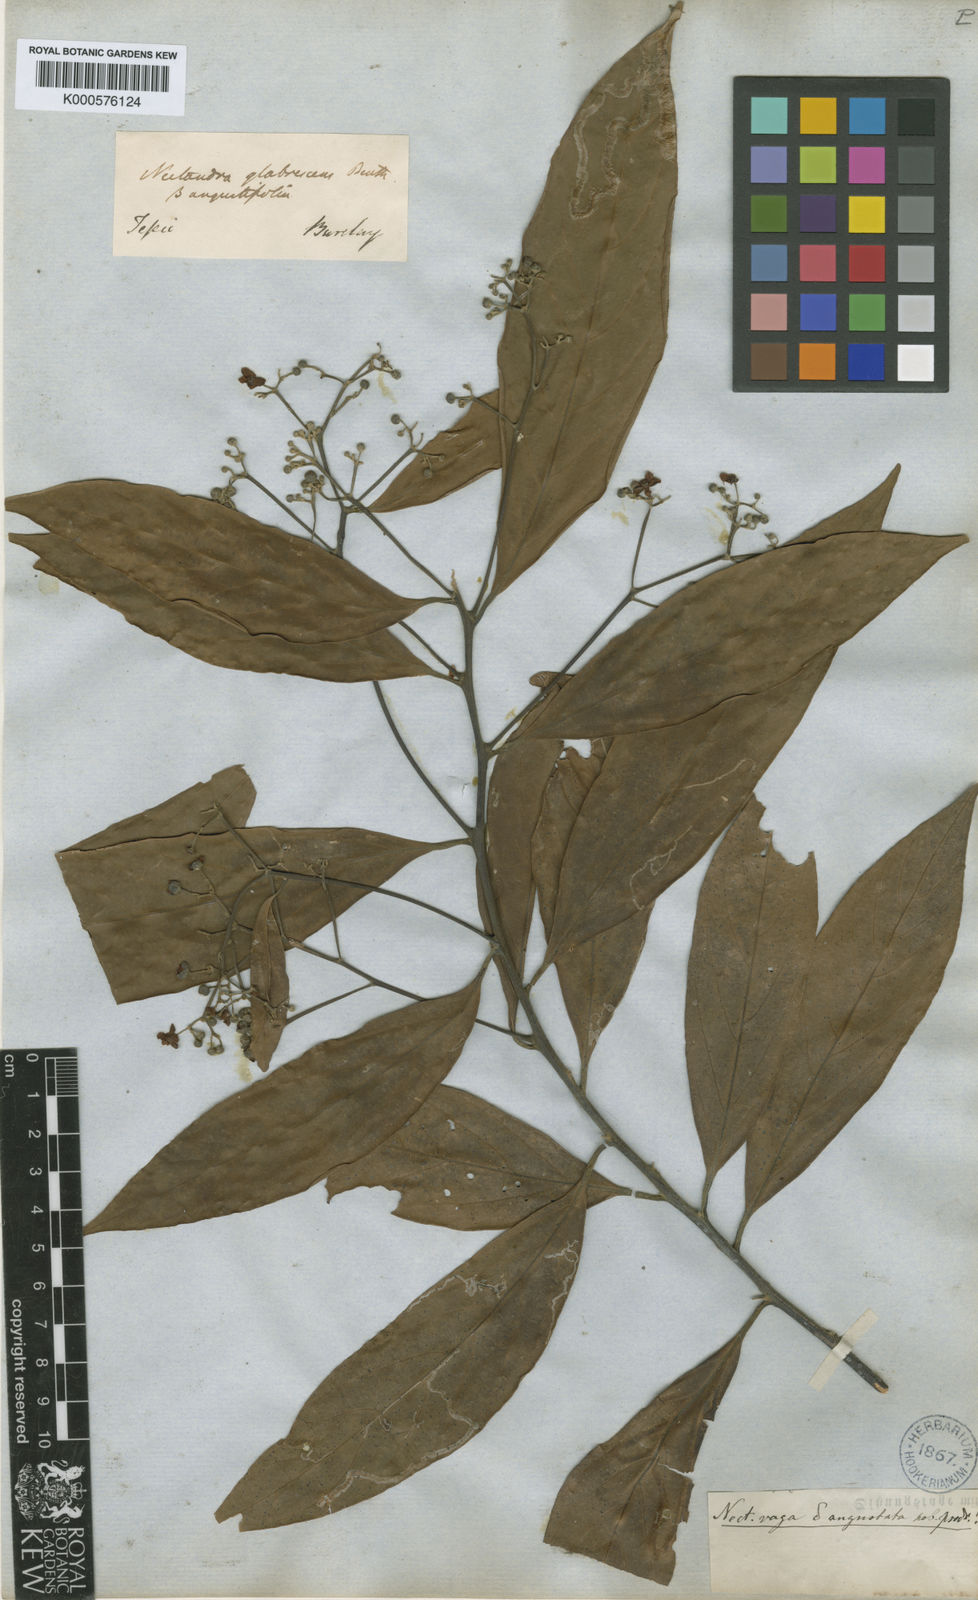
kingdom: Plantae
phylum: Tracheophyta
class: Magnoliopsida
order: Laurales
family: Lauraceae
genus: Nectandra
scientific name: Nectandra globosa
